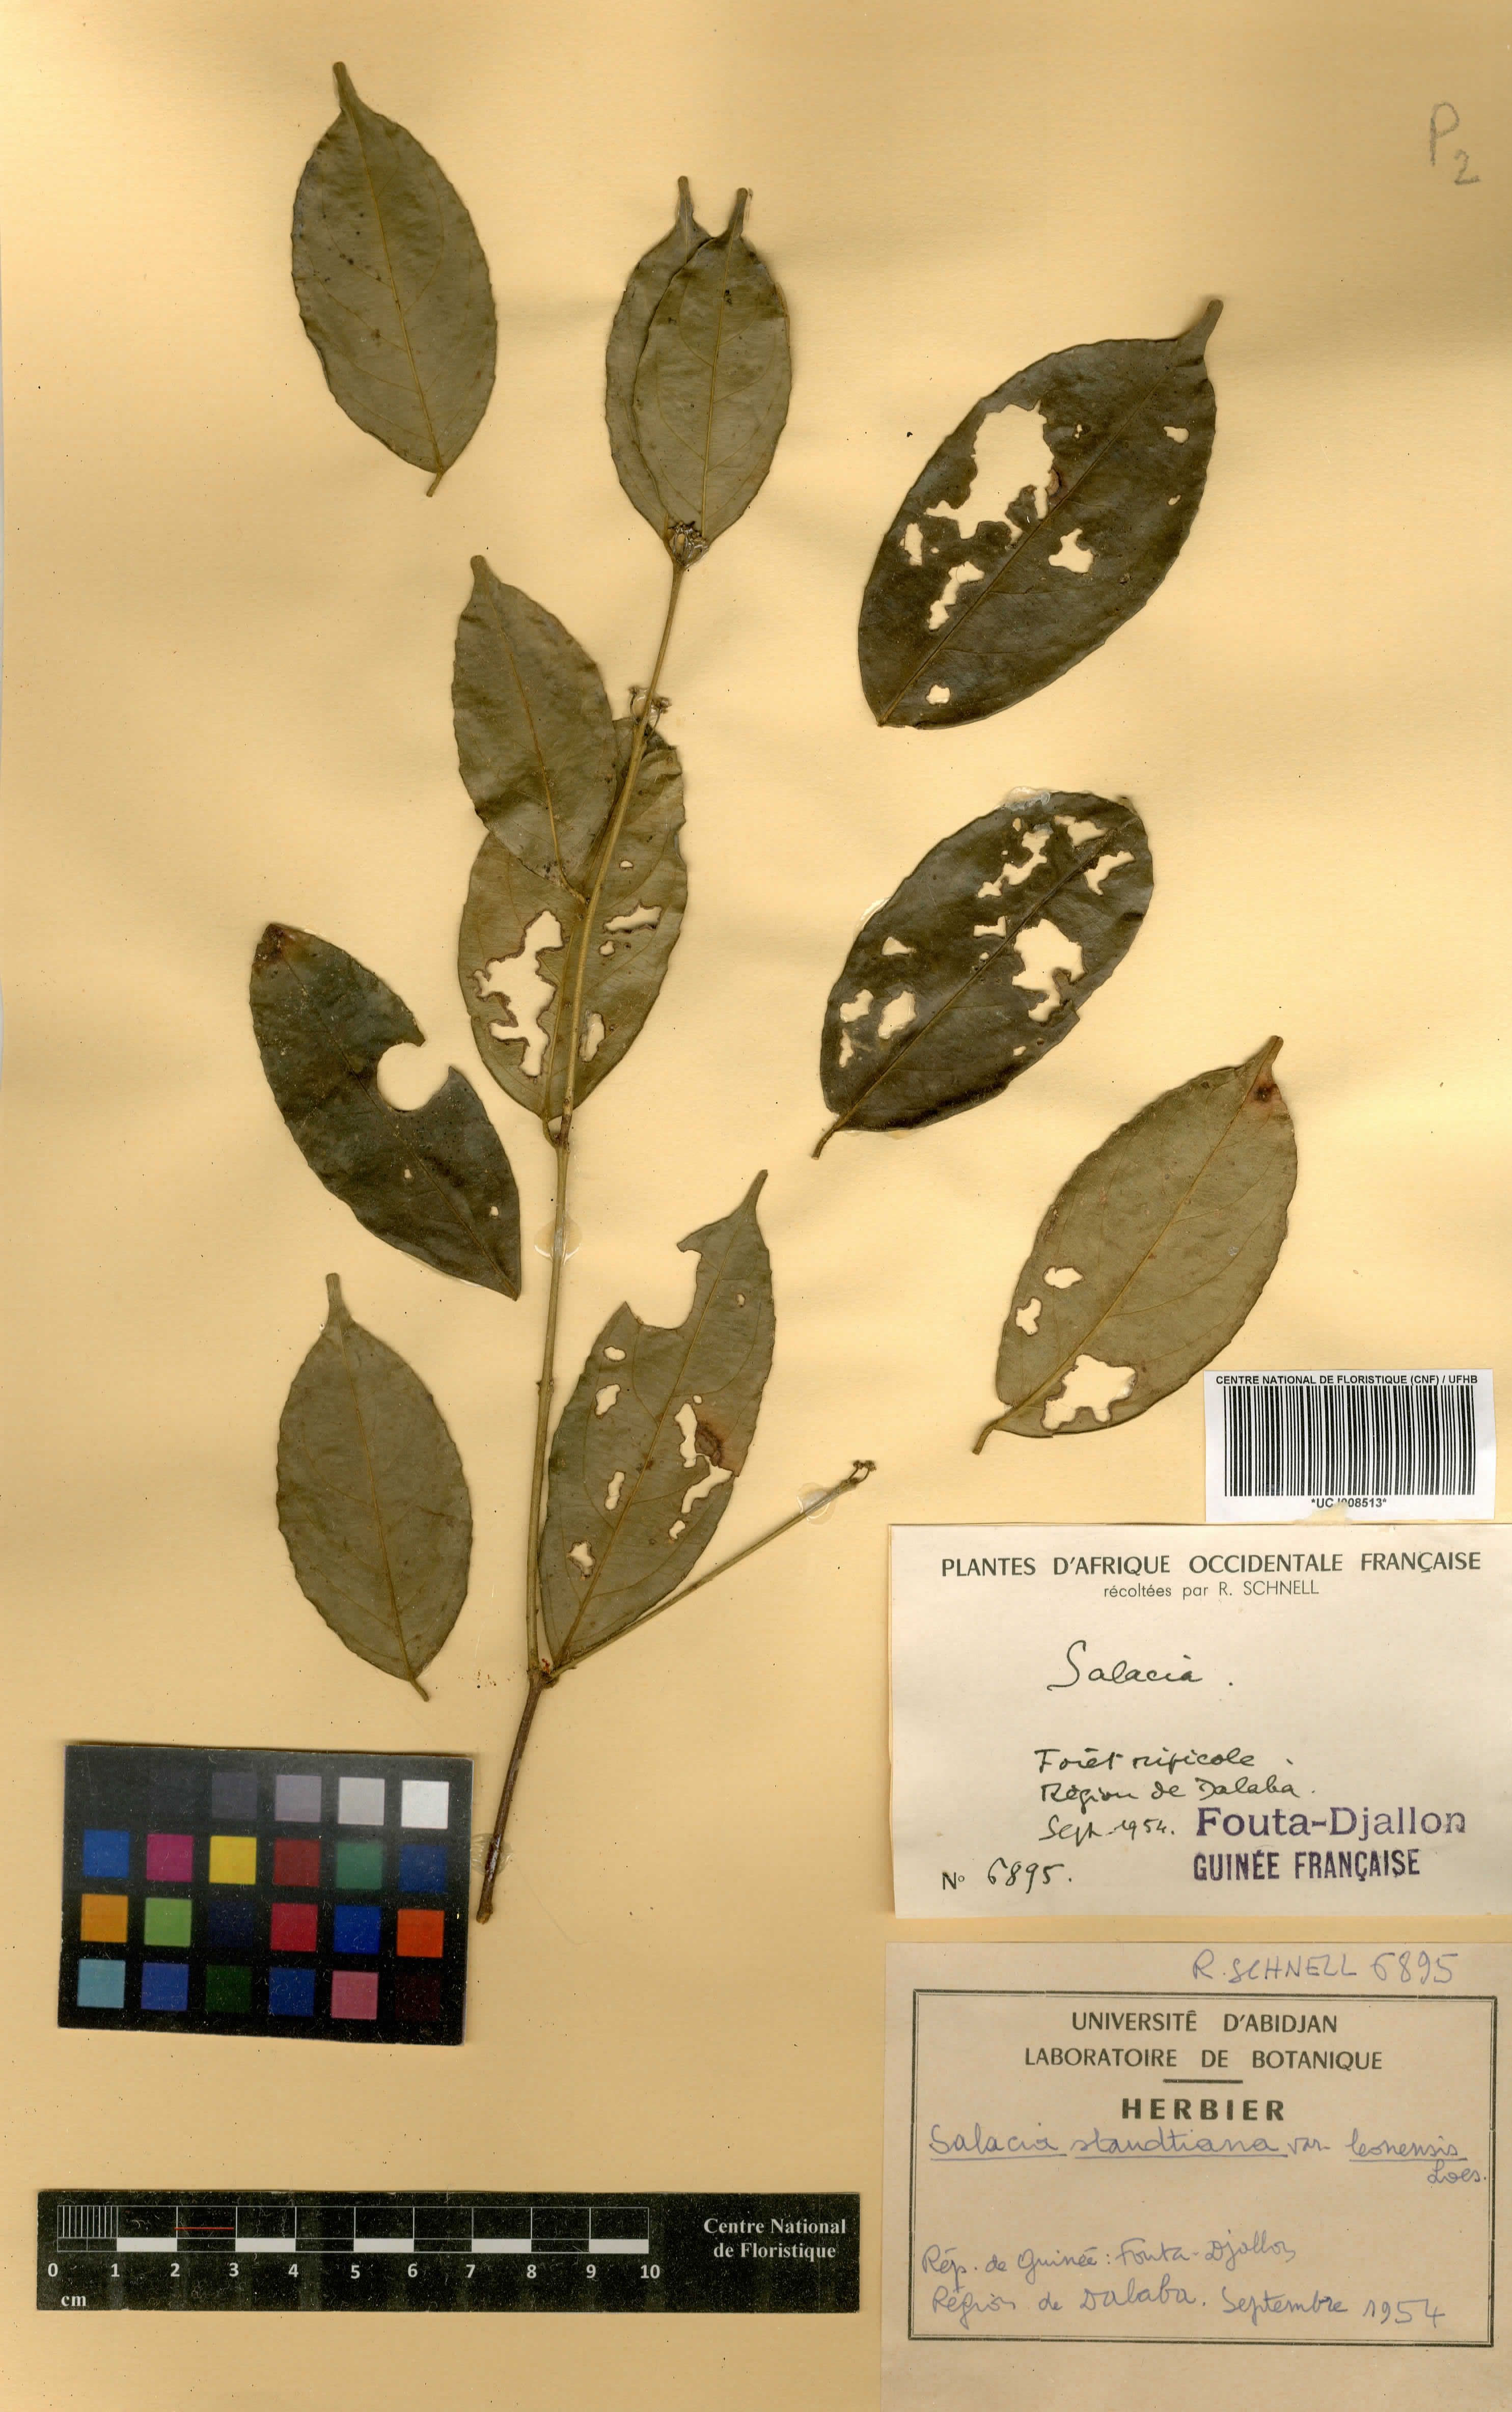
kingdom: Plantae
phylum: Tracheophyta
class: Magnoliopsida
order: Celastrales
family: Celastraceae
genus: Salacia
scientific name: Salacia caillei
